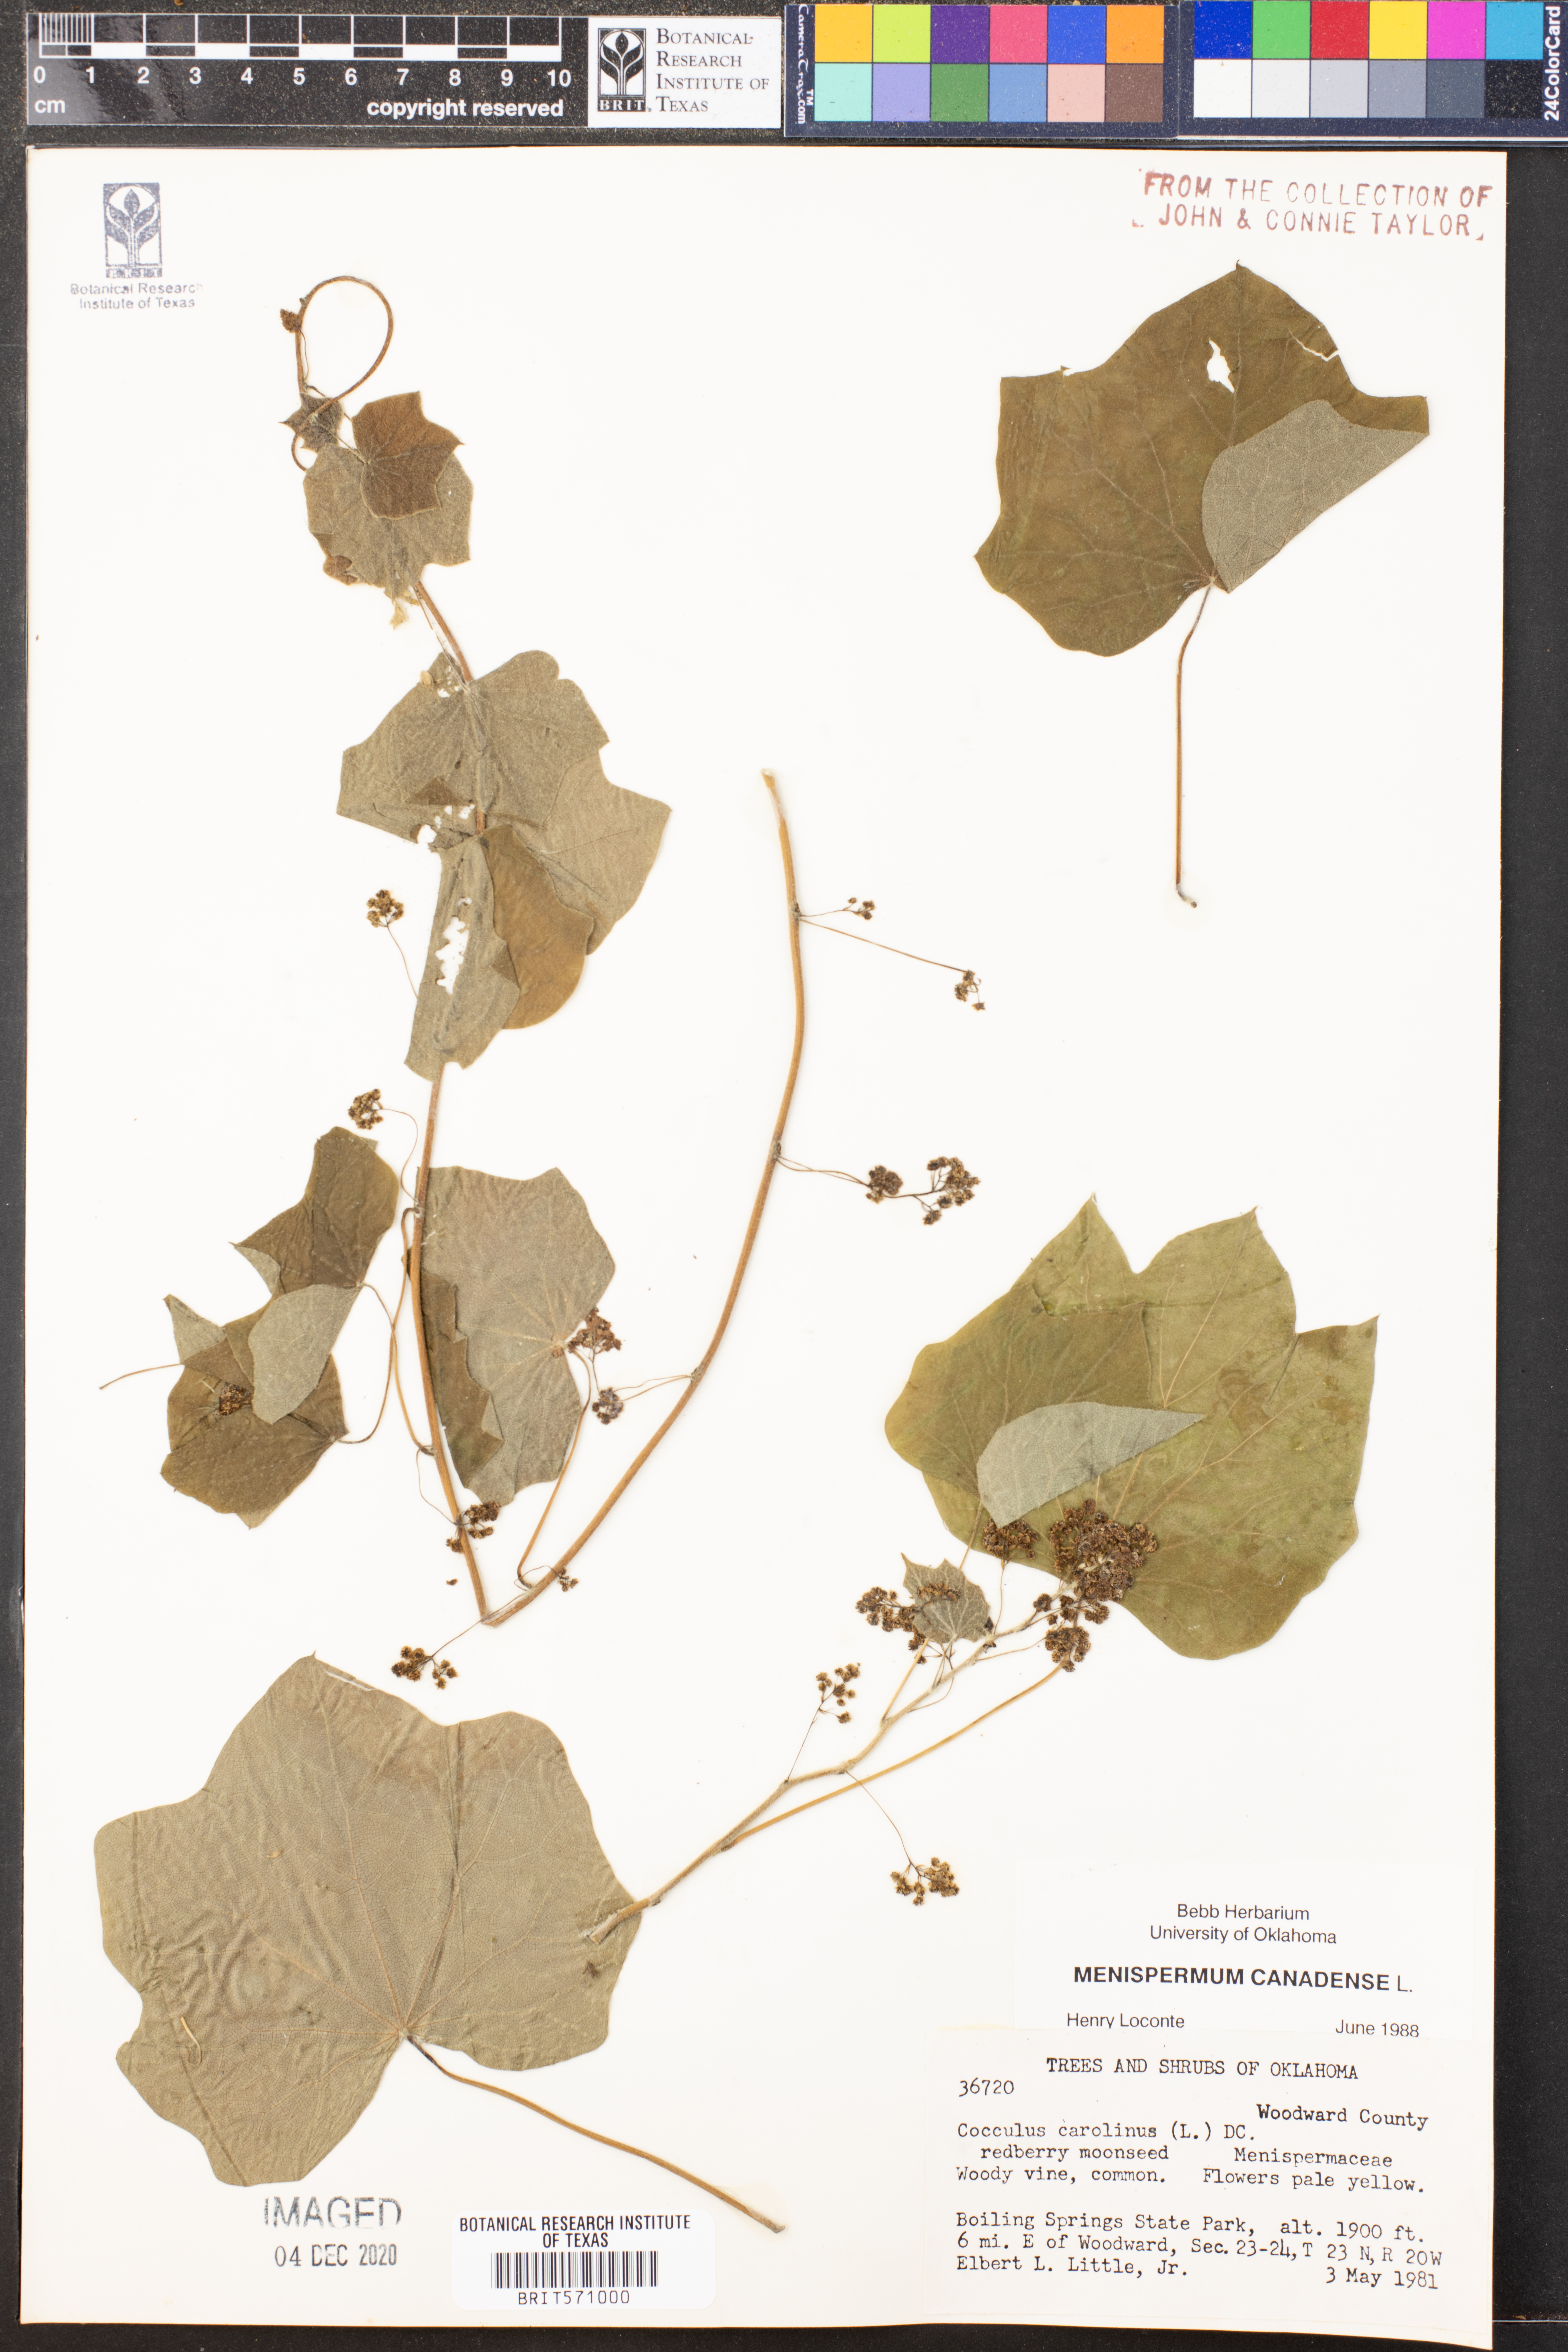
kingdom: Plantae
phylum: Tracheophyta
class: Magnoliopsida
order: Ranunculales
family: Menispermaceae
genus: Menispermum
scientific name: Menispermum canadense
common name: Moonseed
